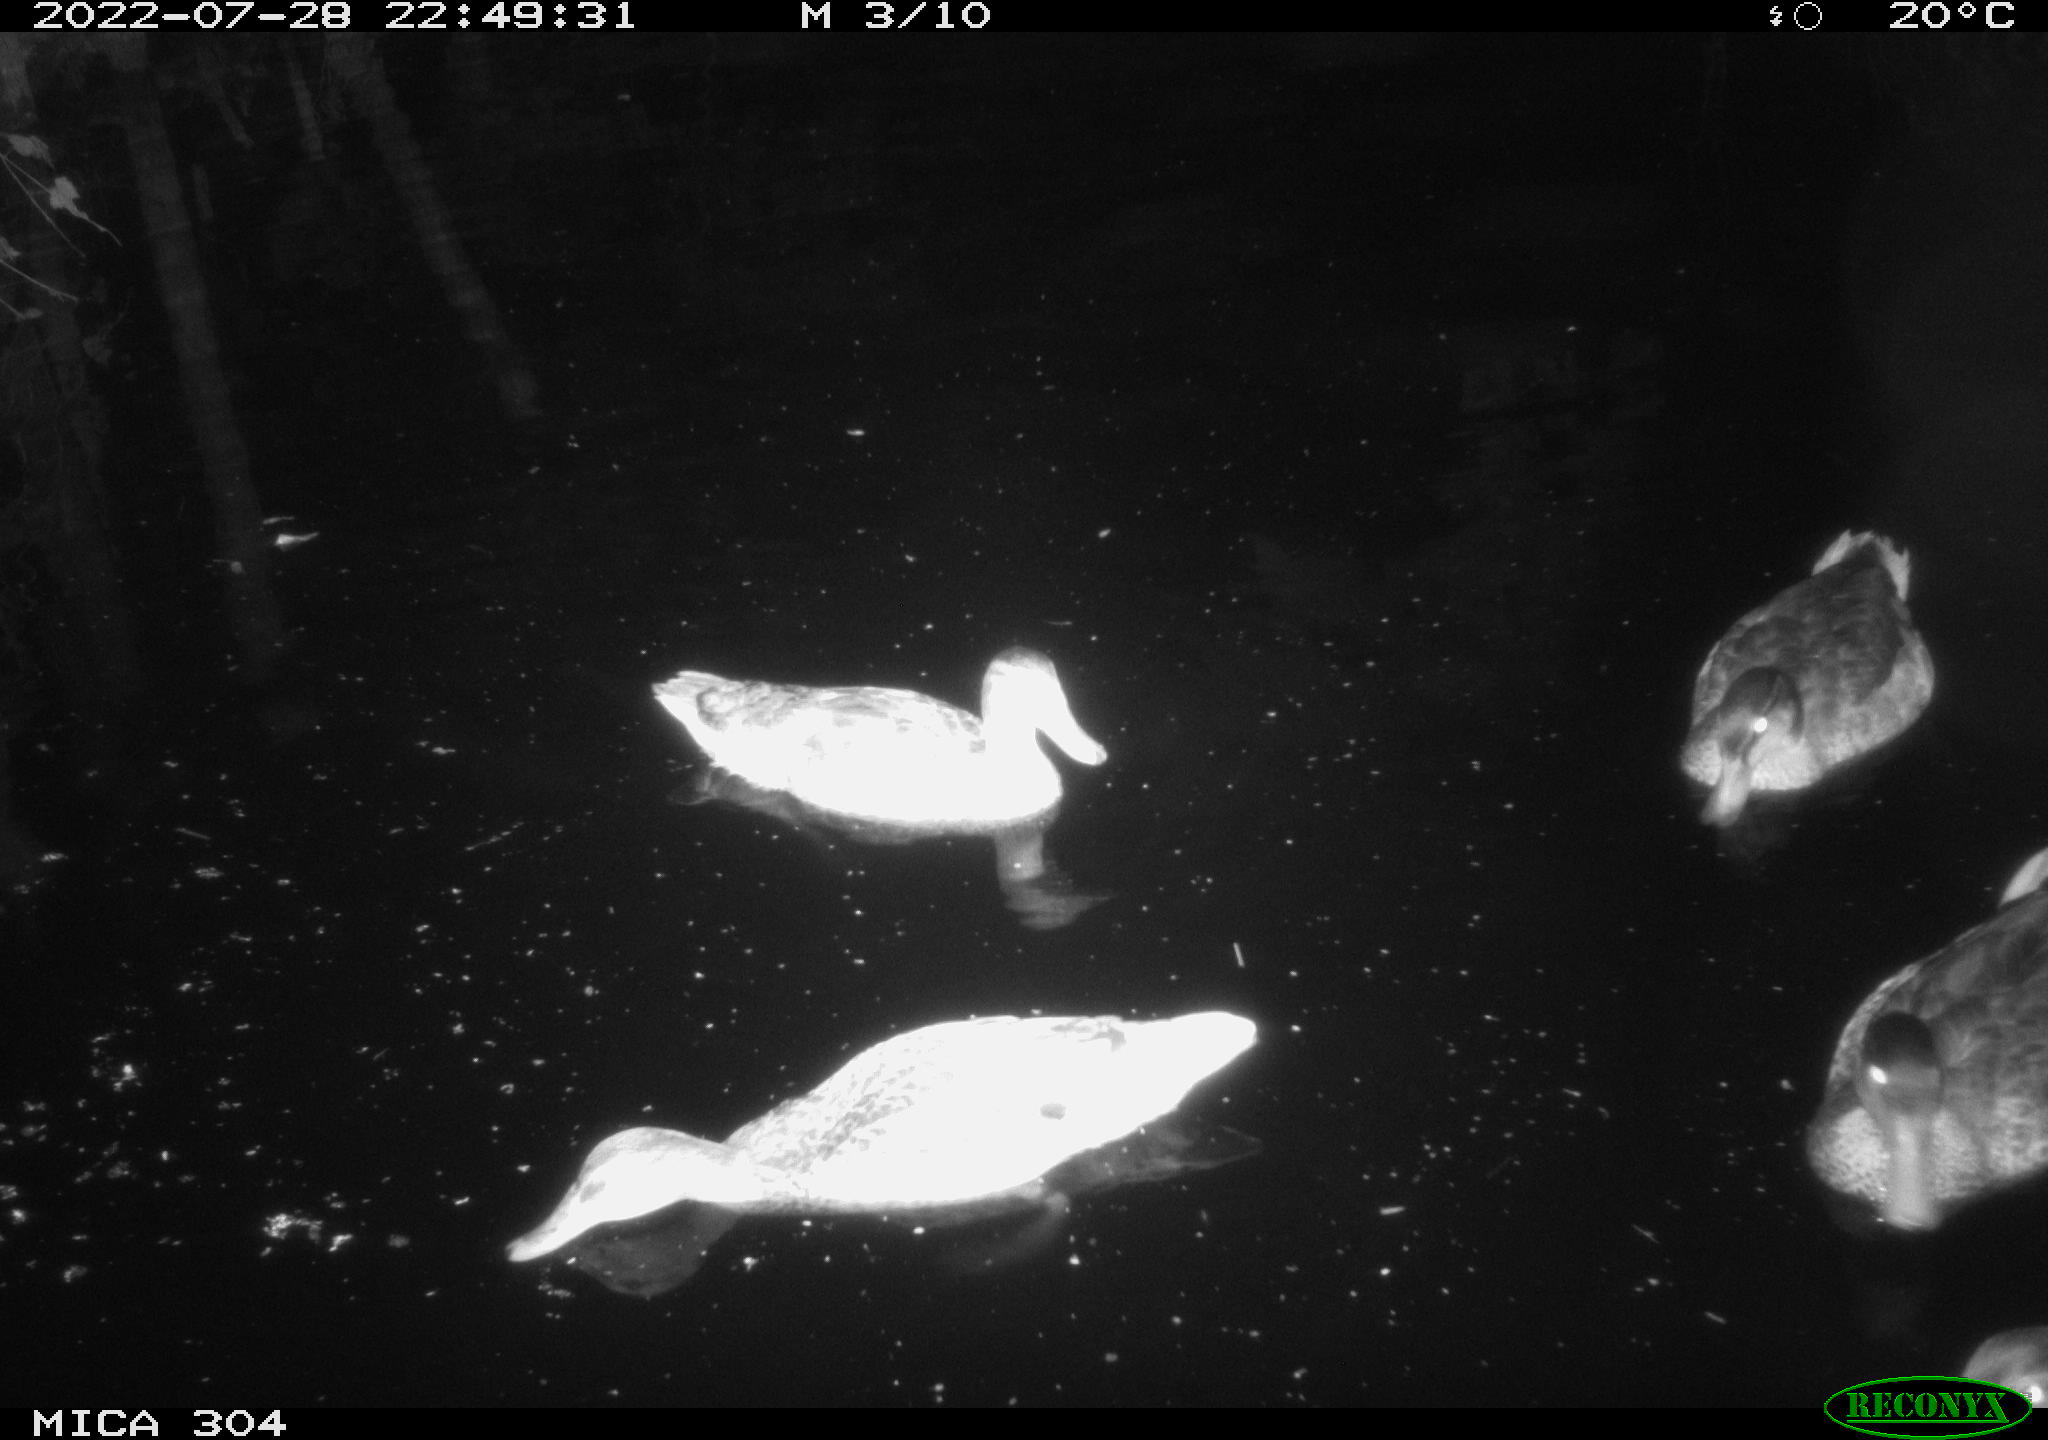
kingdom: Animalia
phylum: Chordata
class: Aves
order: Anseriformes
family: Anatidae
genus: Mareca
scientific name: Mareca strepera
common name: Gadwall
